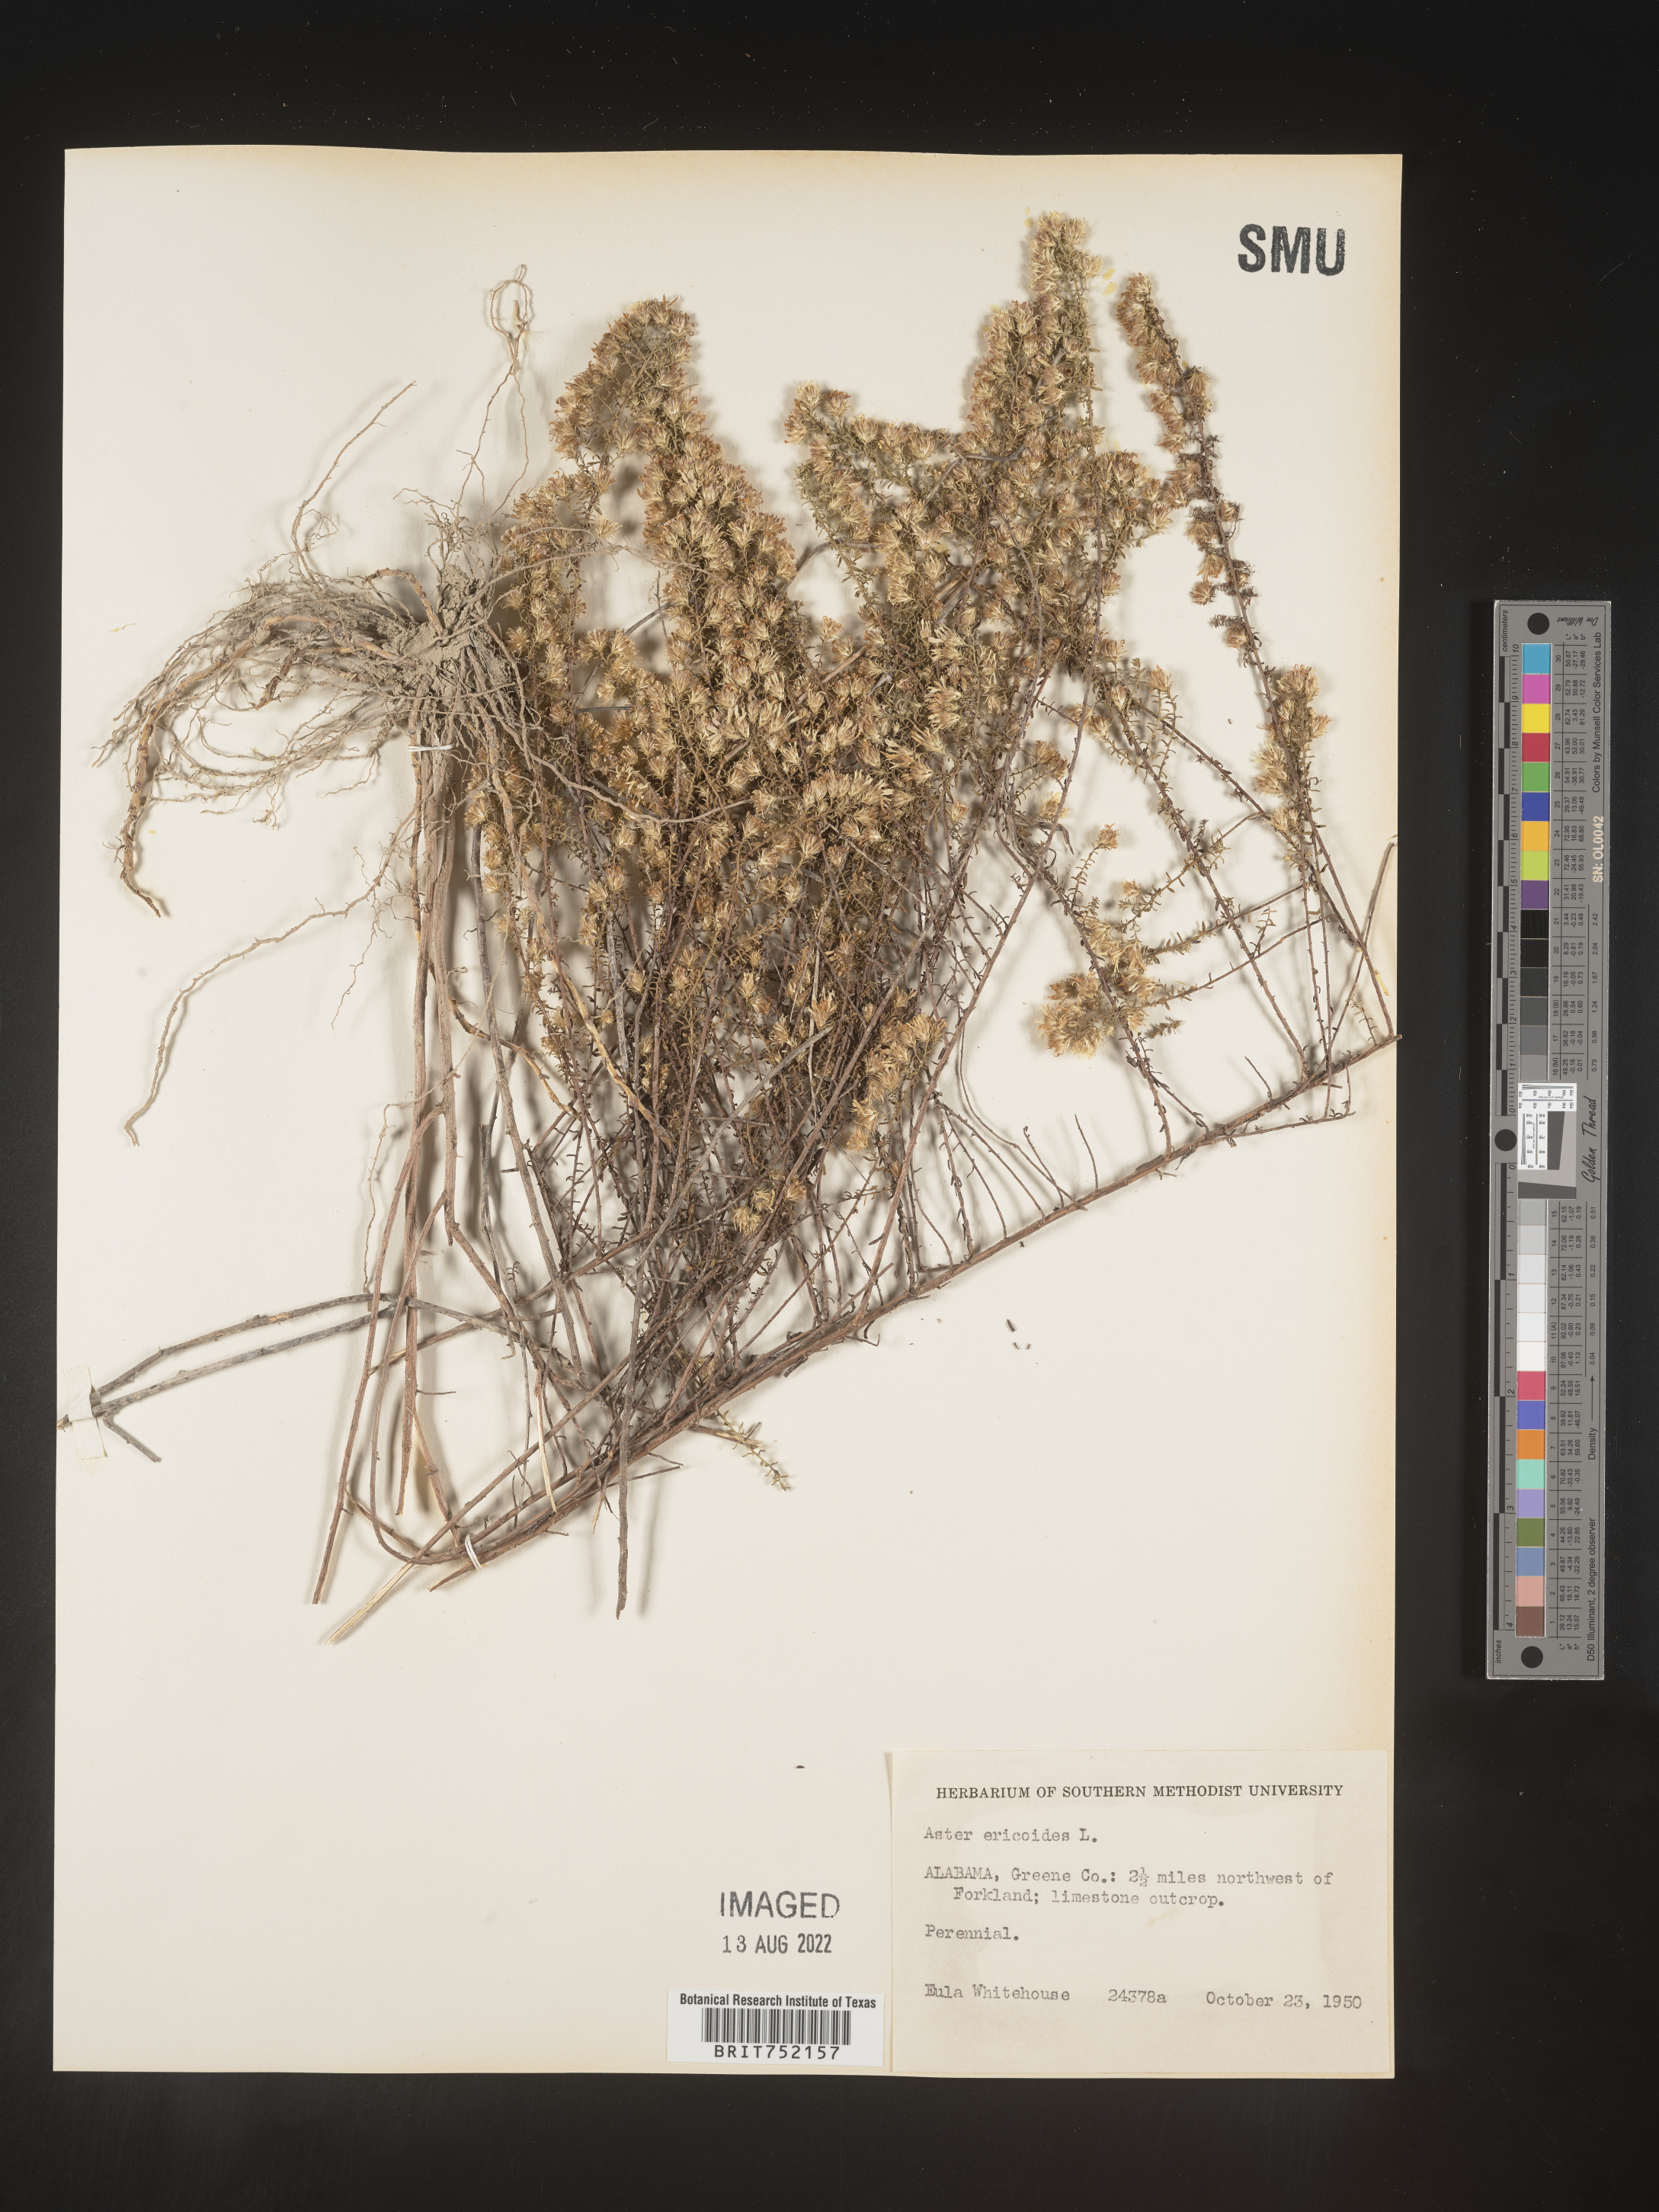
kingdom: Plantae
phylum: Tracheophyta
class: Magnoliopsida
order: Asterales
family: Asteraceae
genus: Symphyotrichum
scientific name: Symphyotrichum ericoides
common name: Heath aster
